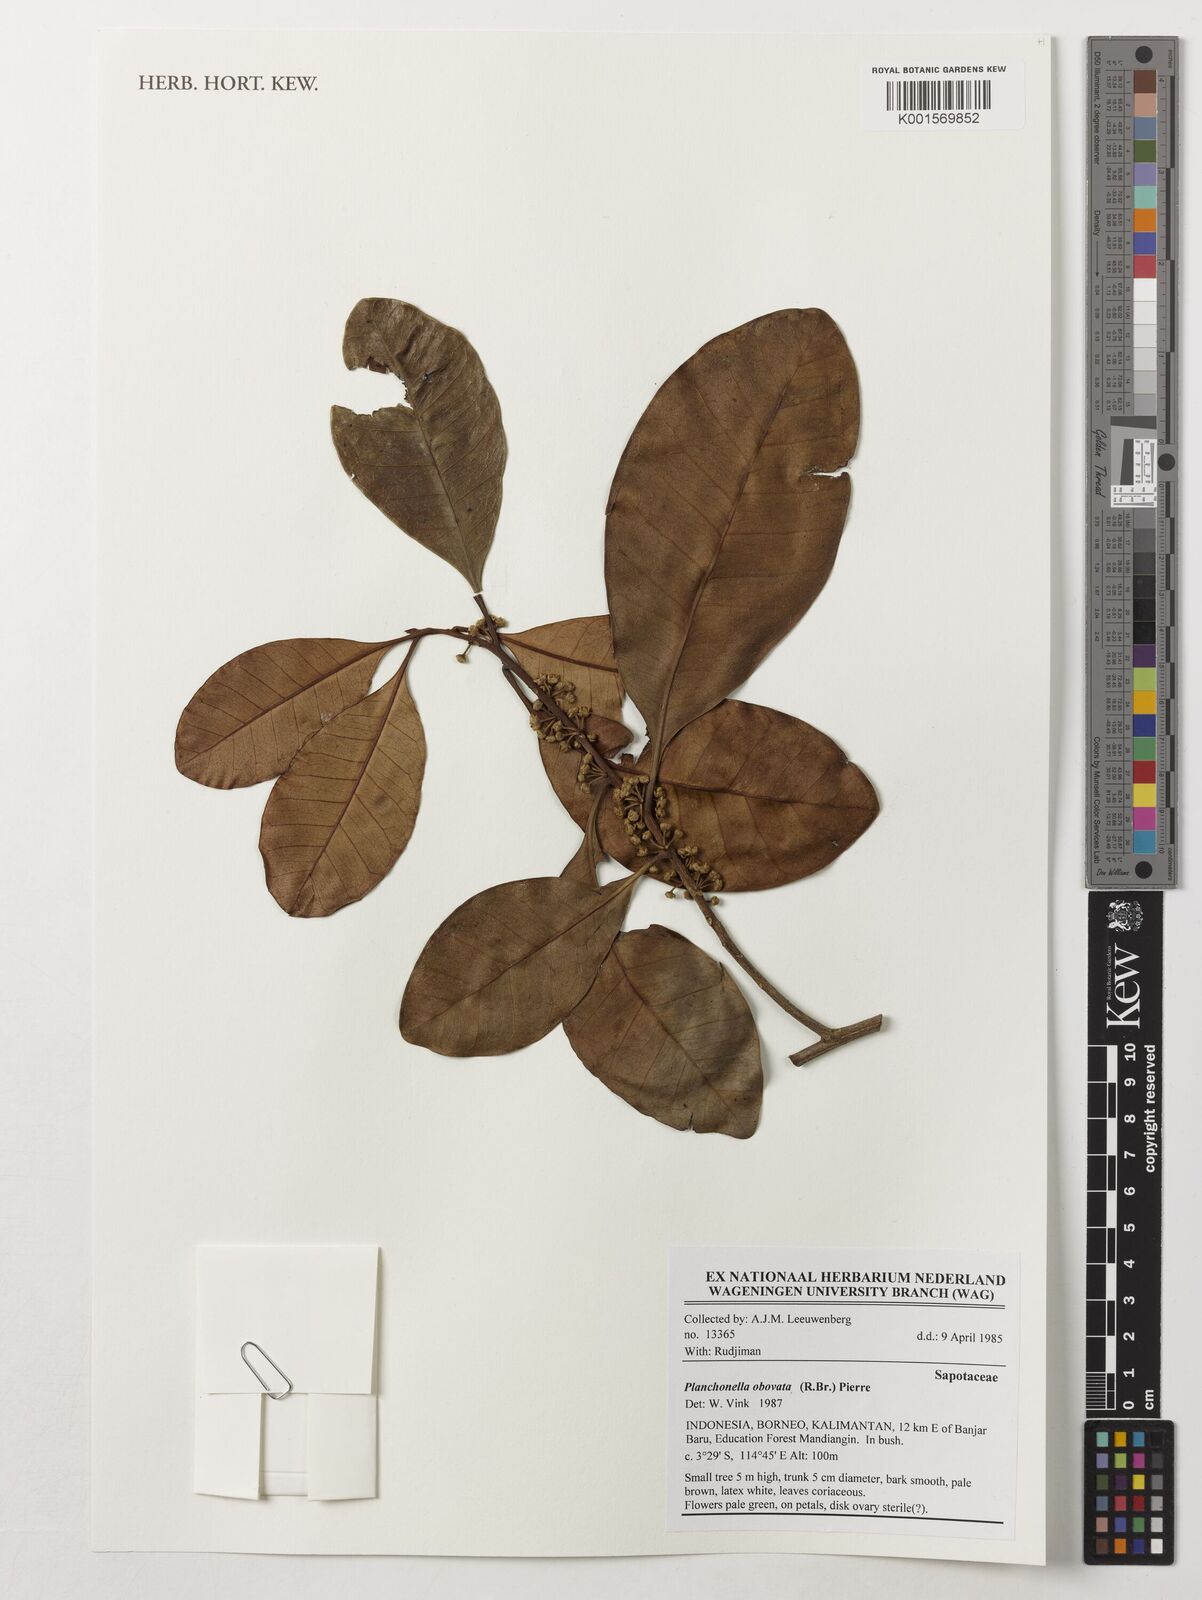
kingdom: Plantae
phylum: Tracheophyta
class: Magnoliopsida
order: Ericales
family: Sapotaceae
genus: Planchonella
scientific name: Planchonella obovata
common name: Black-ash
